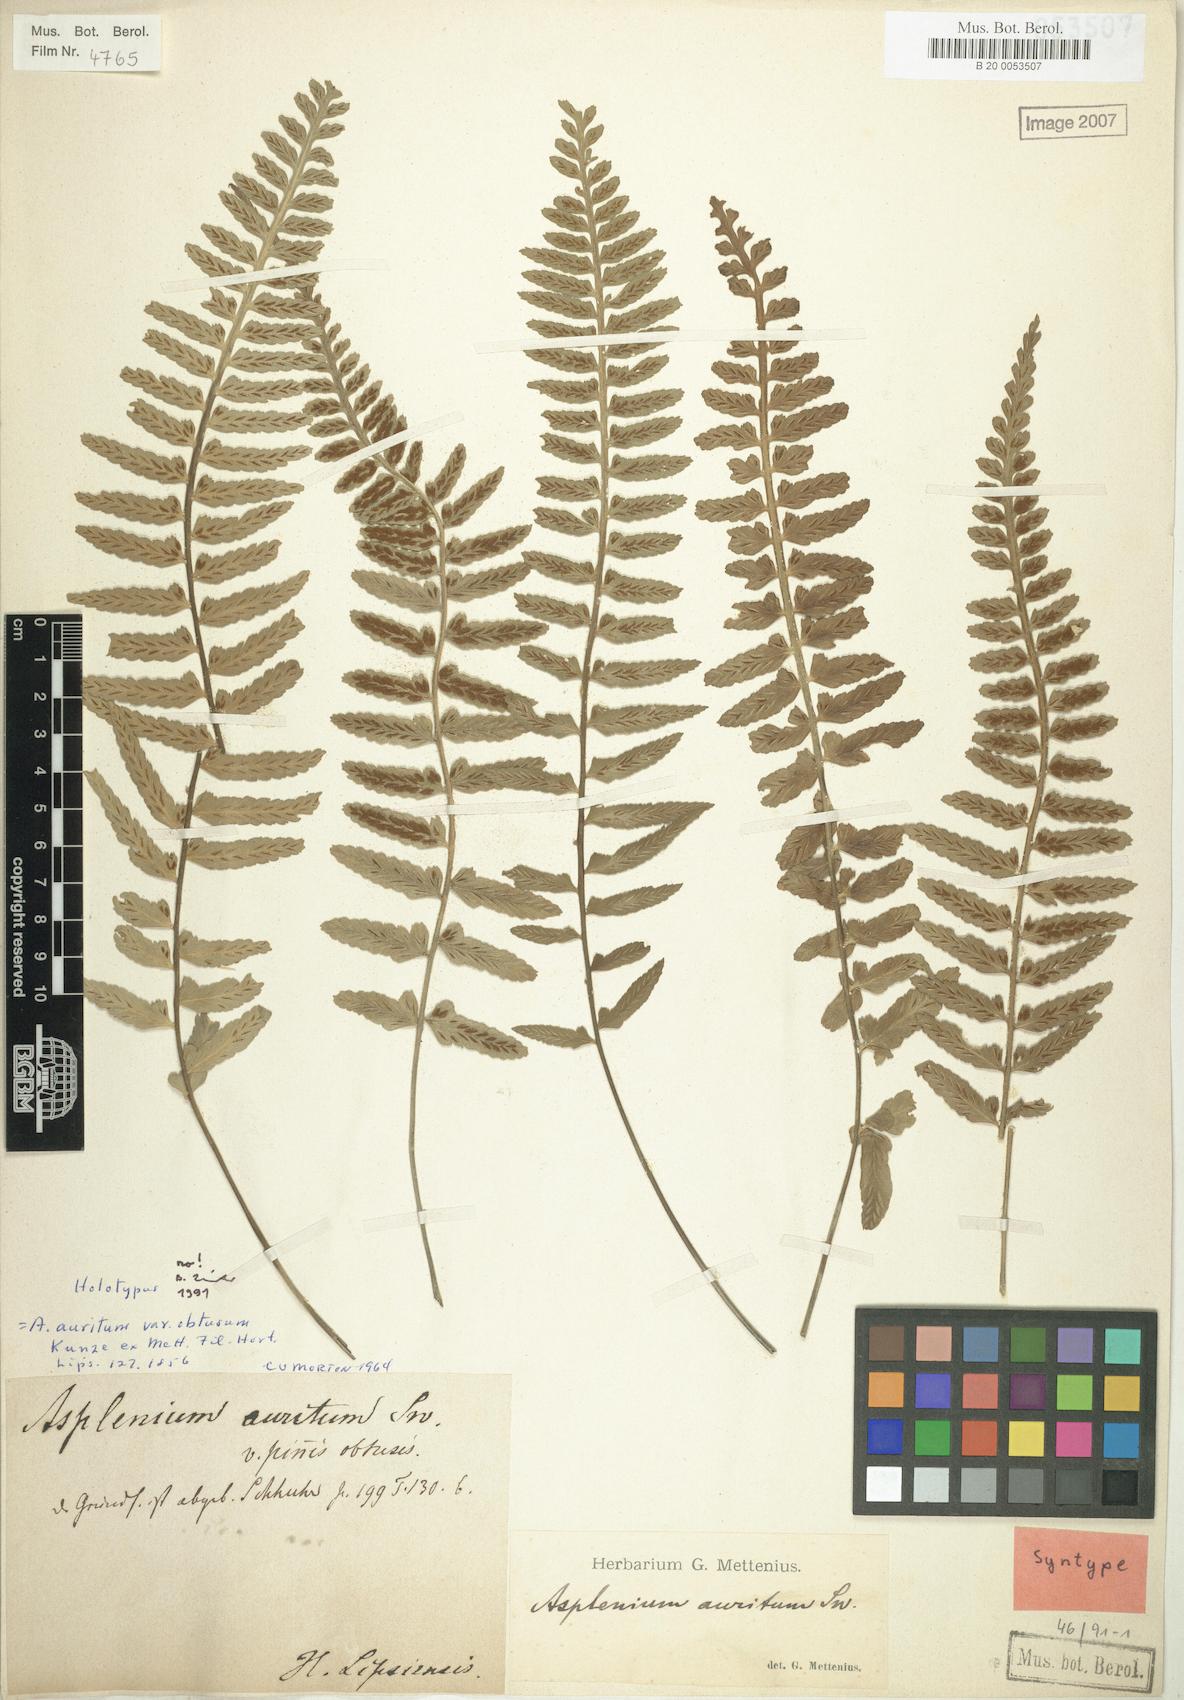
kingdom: Plantae
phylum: Tracheophyta
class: Polypodiopsida
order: Polypodiales
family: Aspleniaceae
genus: Asplenium
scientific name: Asplenium auritum
